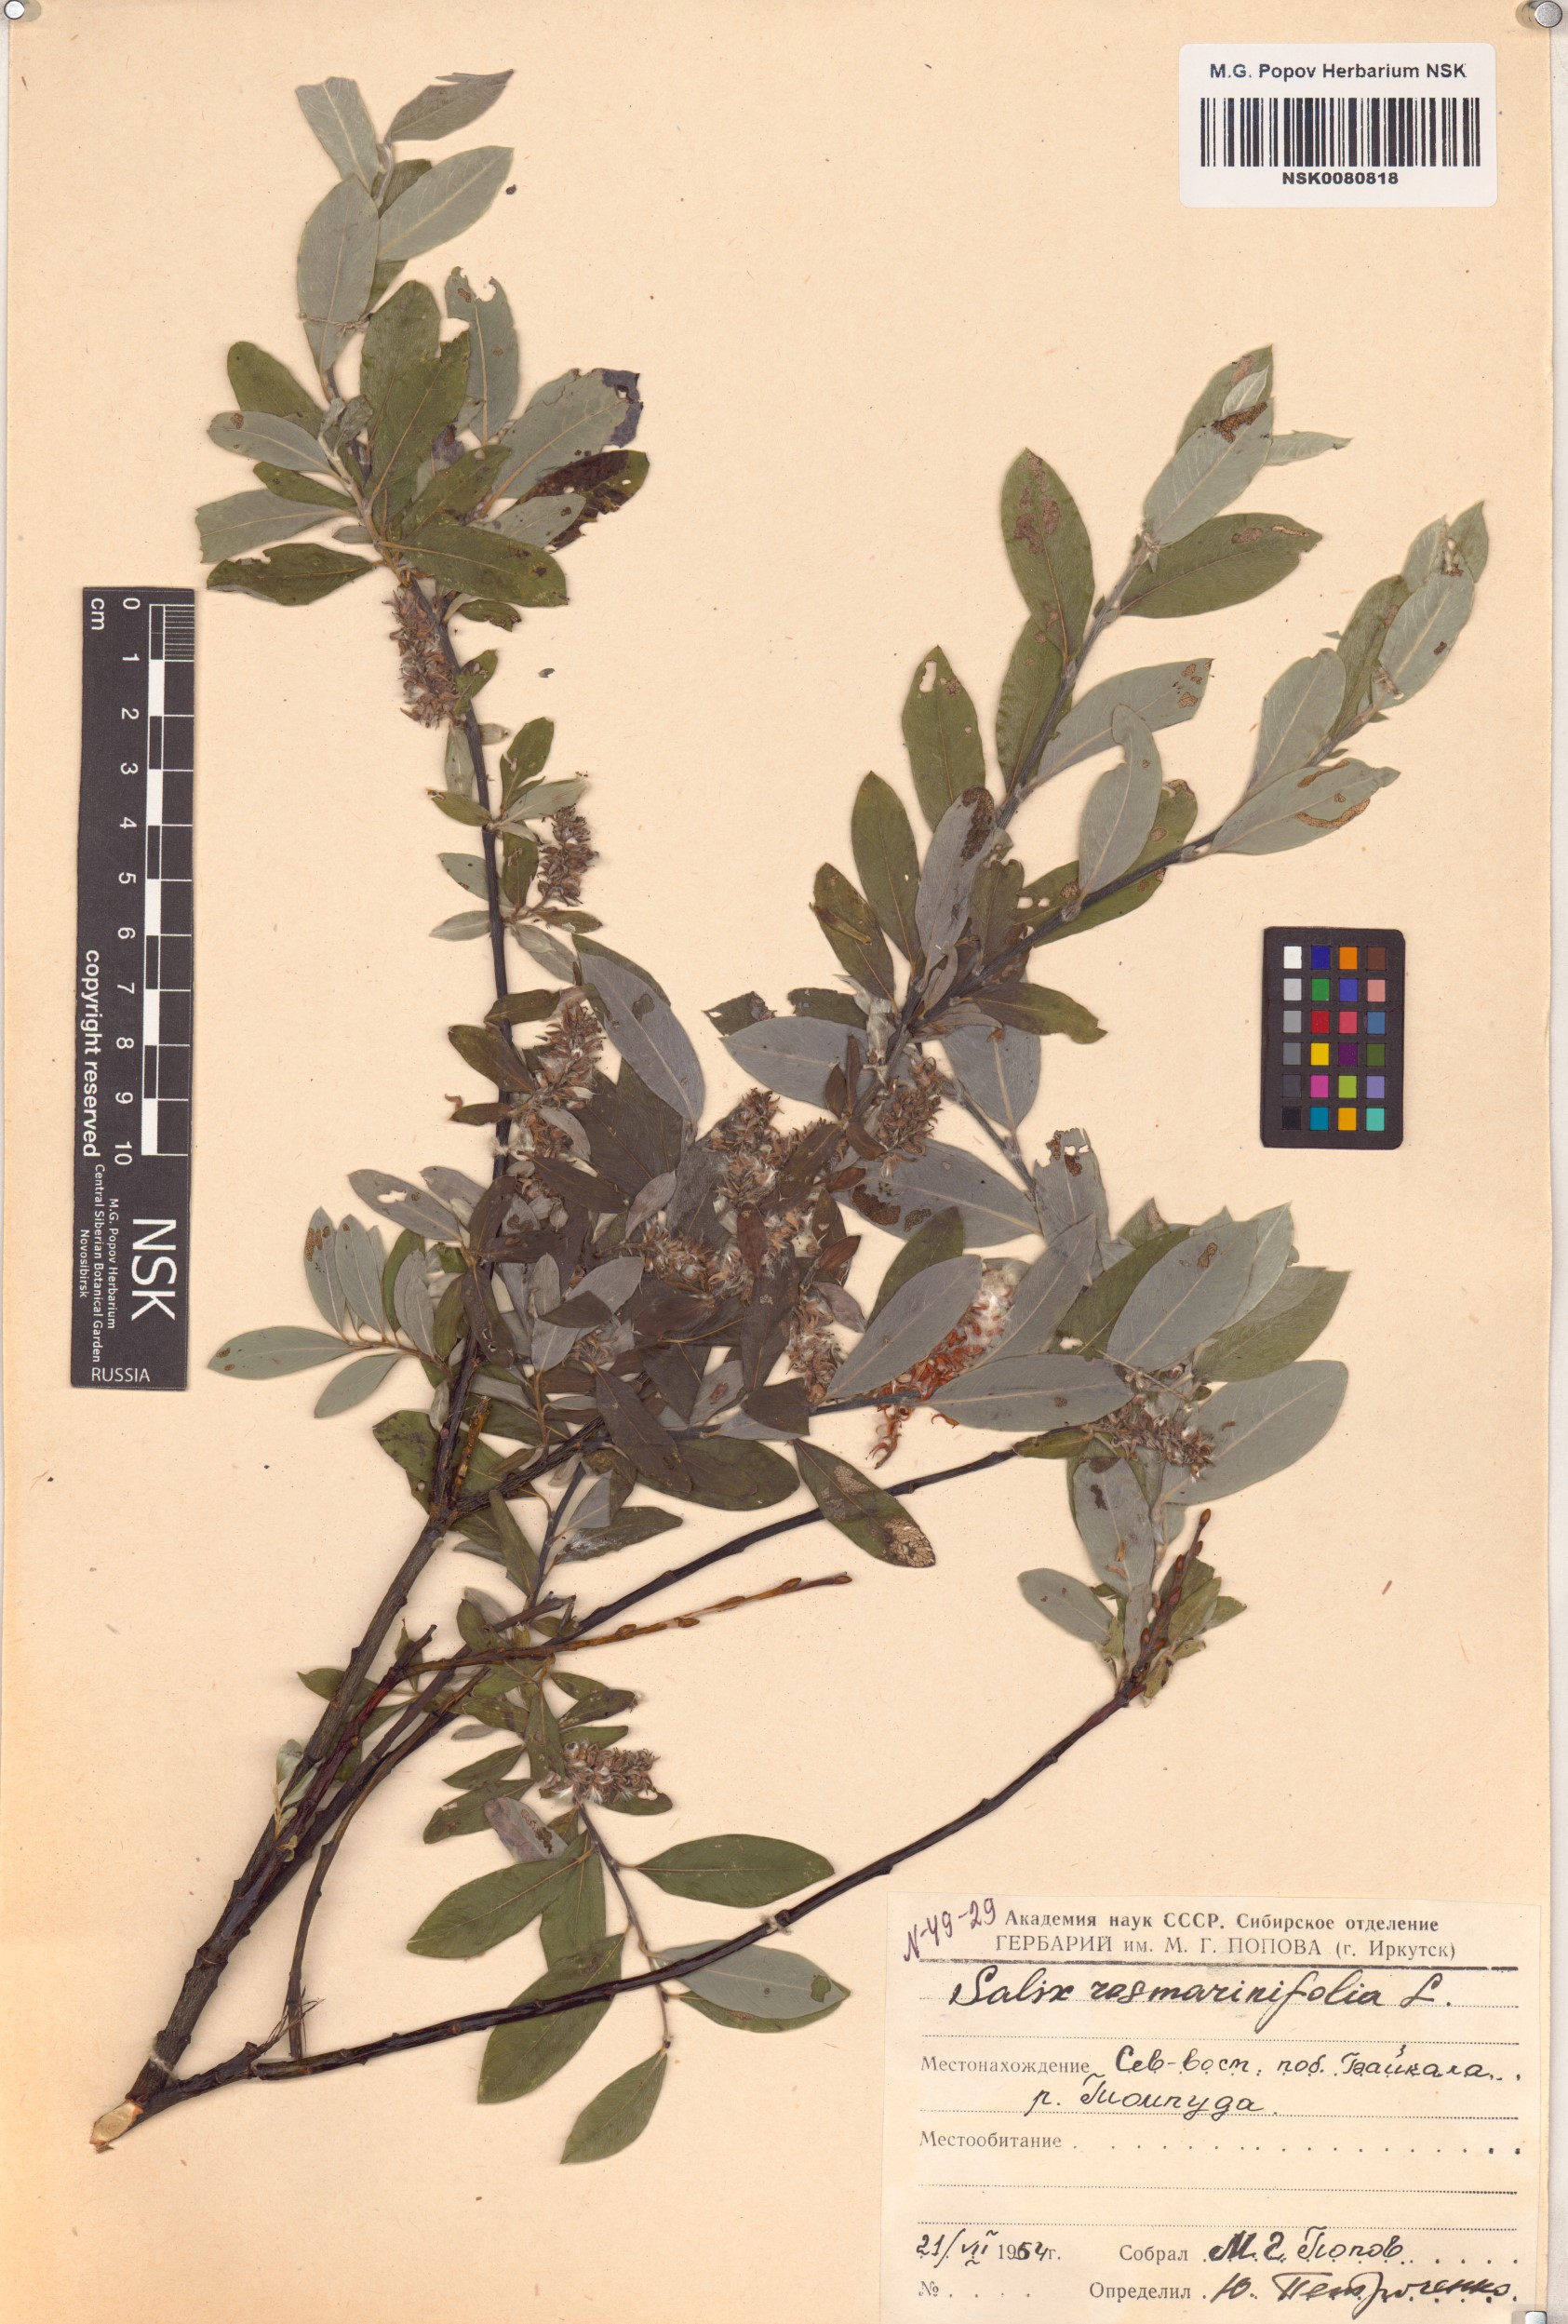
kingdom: Plantae
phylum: Tracheophyta
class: Magnoliopsida
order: Malpighiales
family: Salicaceae
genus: Salix
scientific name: Salix rosmarinifolia
